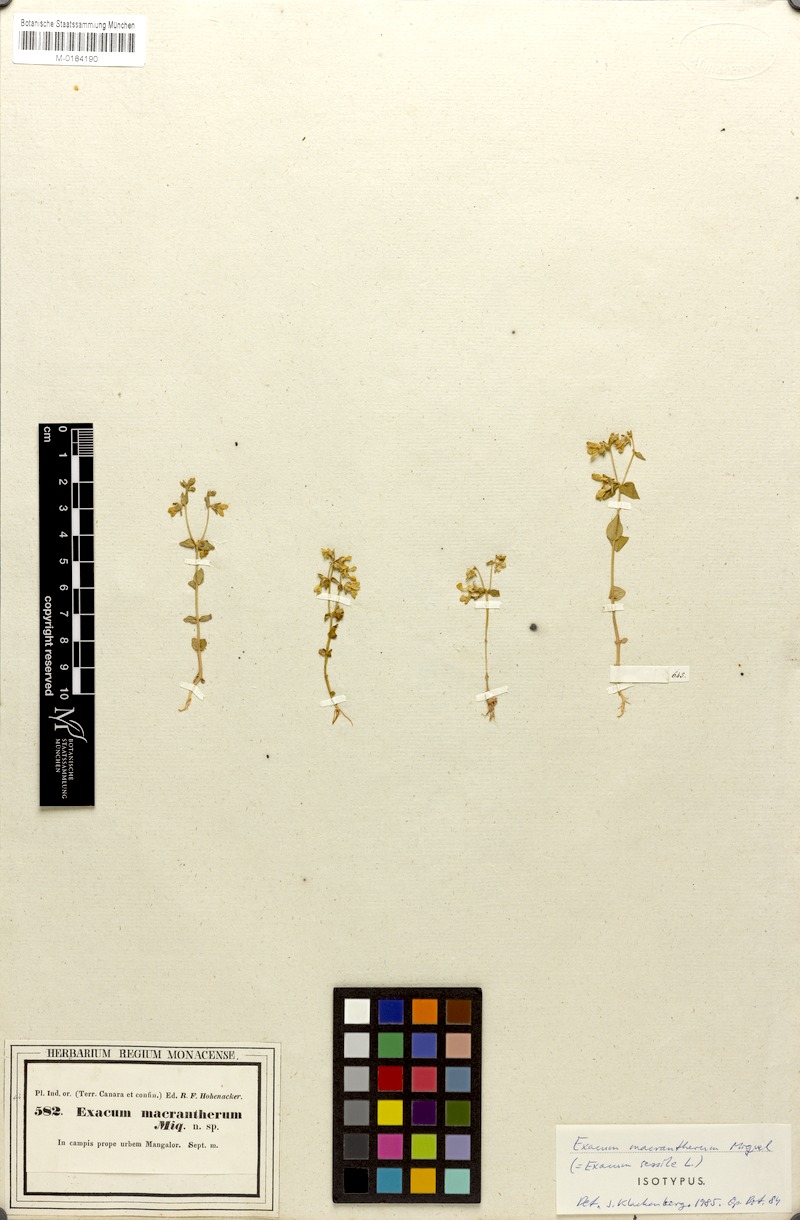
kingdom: Plantae
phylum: Tracheophyta
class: Magnoliopsida
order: Gentianales
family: Gentianaceae
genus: Exacum
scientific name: Exacum sessile
